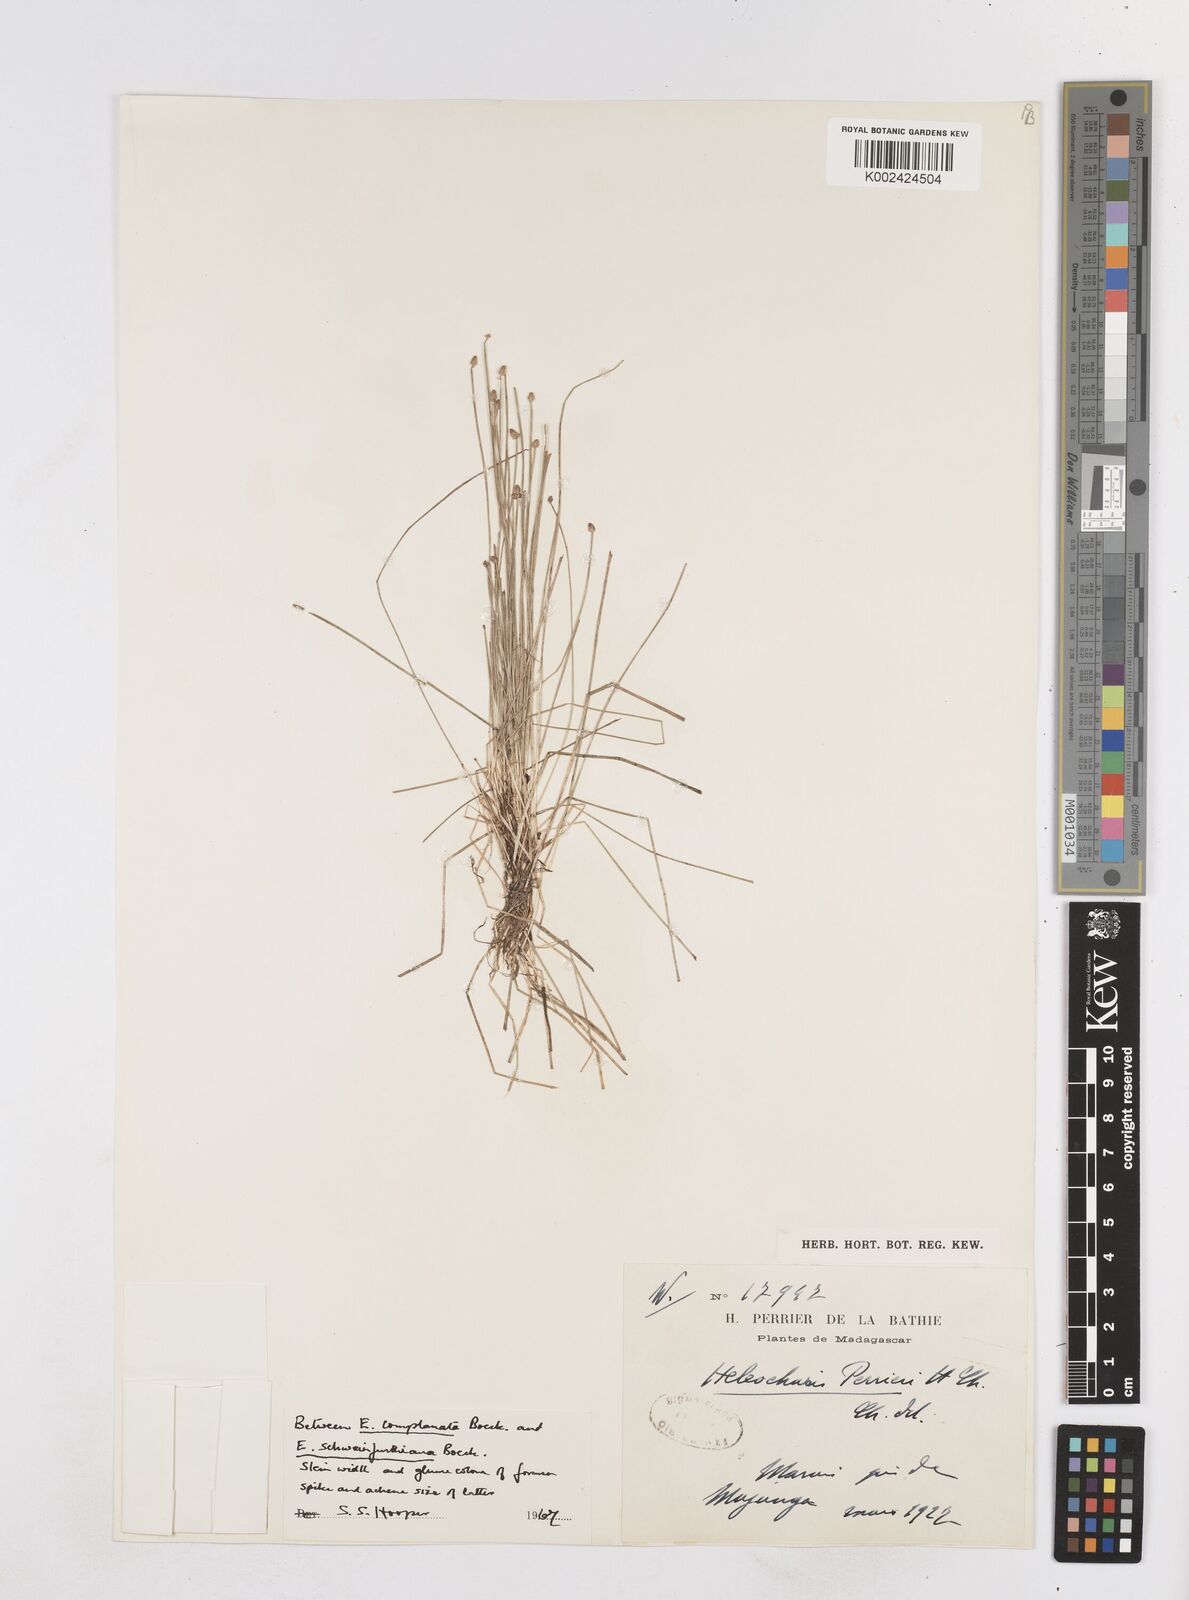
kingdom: Plantae
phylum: Tracheophyta
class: Liliopsida
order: Poales
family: Cyperaceae
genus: Eleocharis
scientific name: Eleocharis nigrescens
